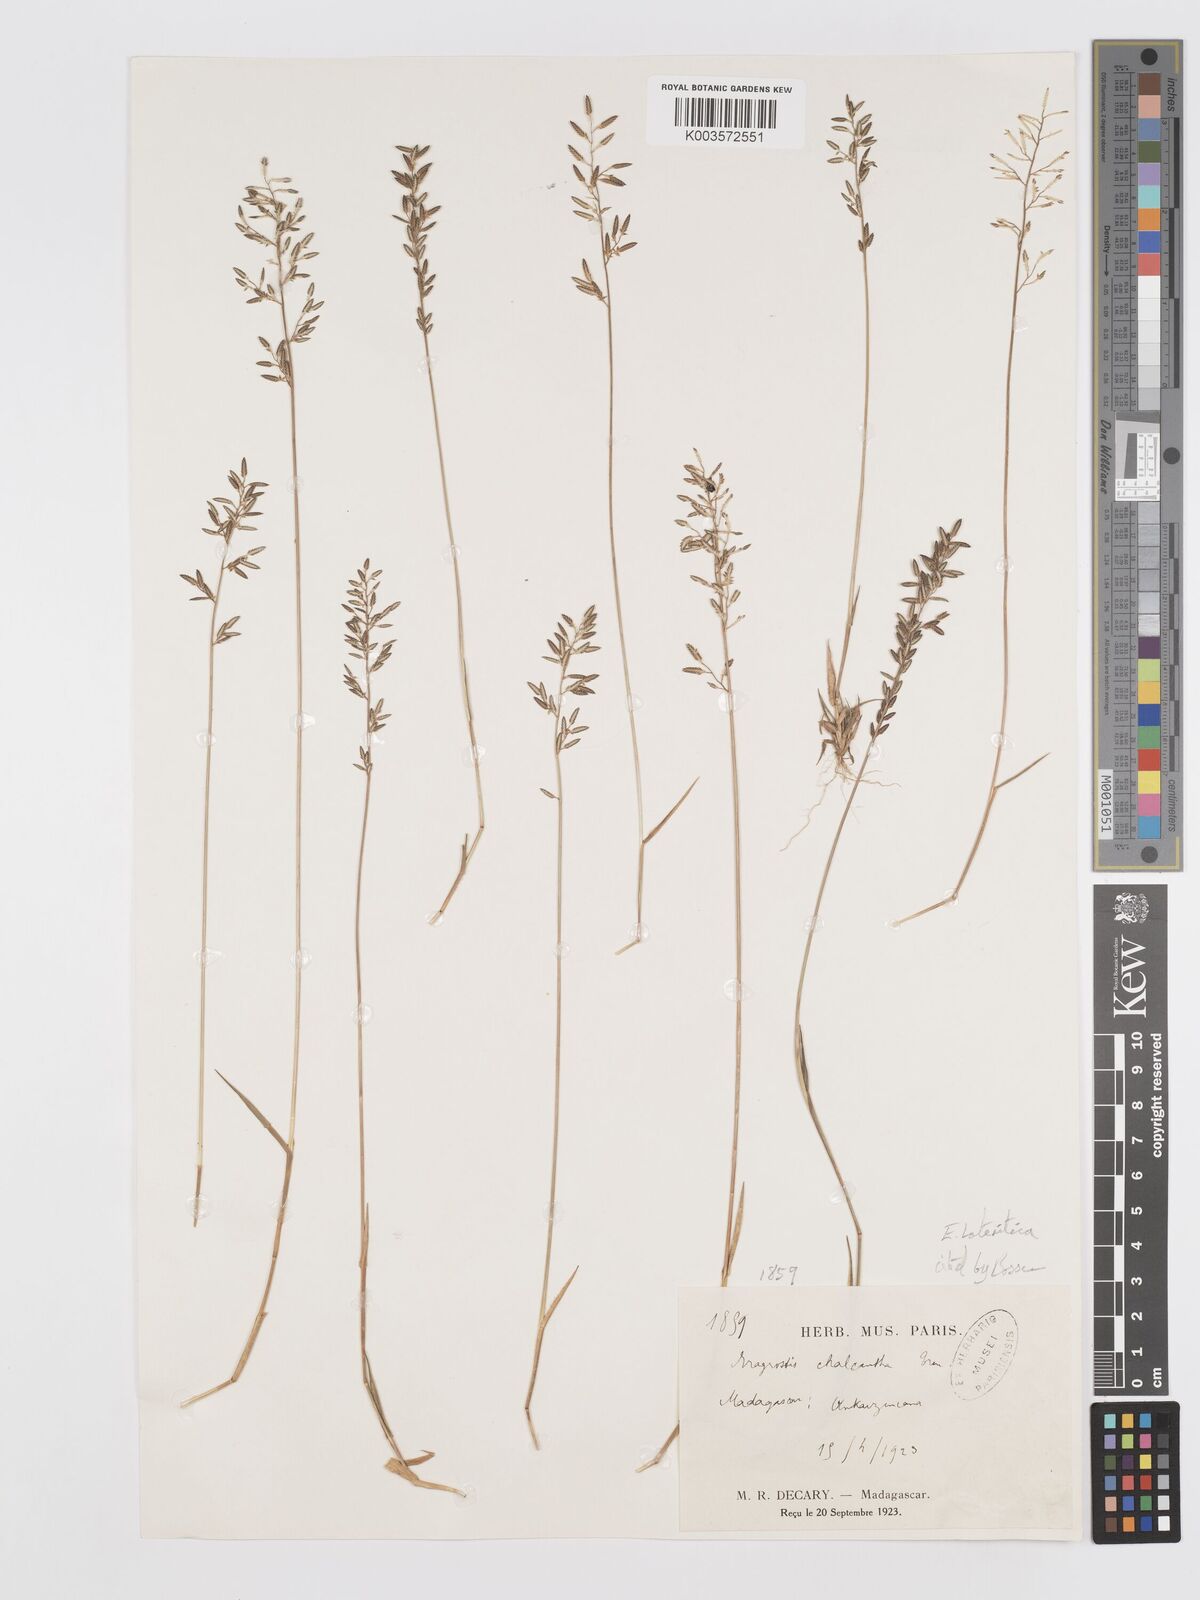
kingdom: Plantae
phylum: Tracheophyta
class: Liliopsida
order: Poales
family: Poaceae
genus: Eragrostis
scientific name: Eragrostis lateritica
